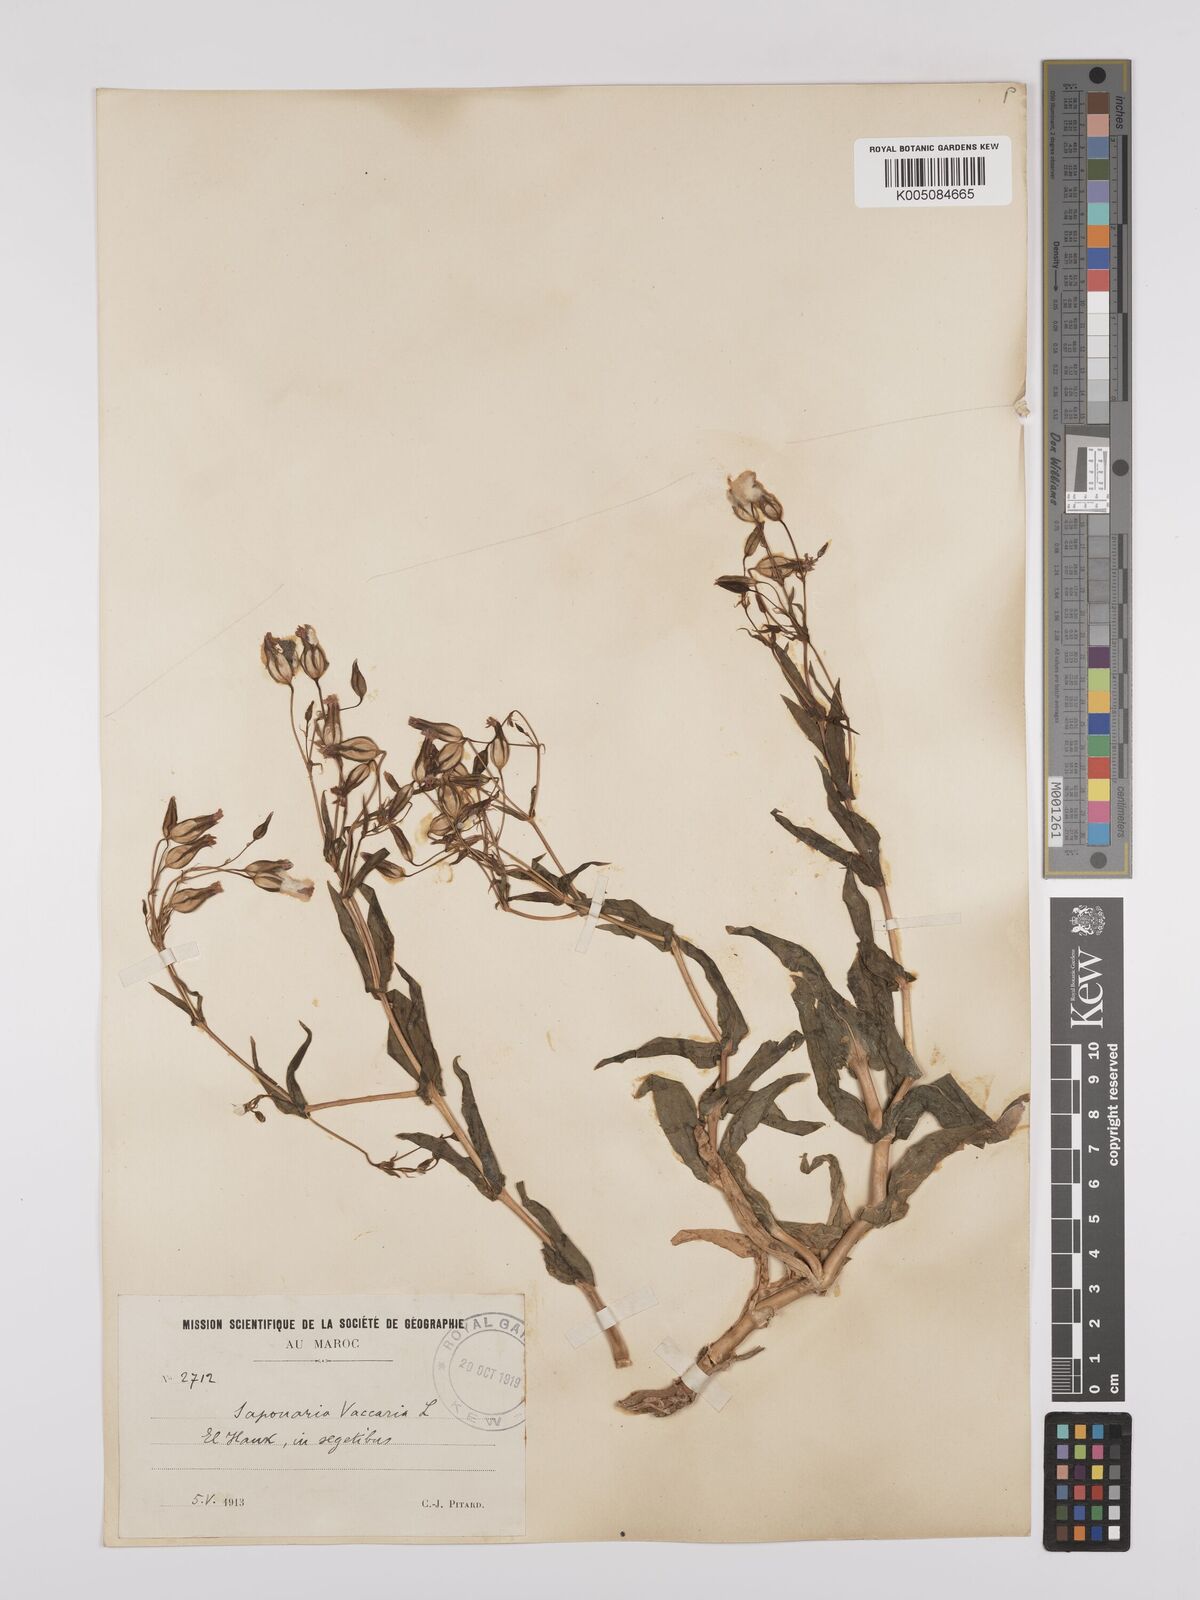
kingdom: Plantae
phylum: Tracheophyta
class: Magnoliopsida
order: Caryophyllales
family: Caryophyllaceae
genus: Gypsophila
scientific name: Gypsophila vaccaria
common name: Cow soapwort
